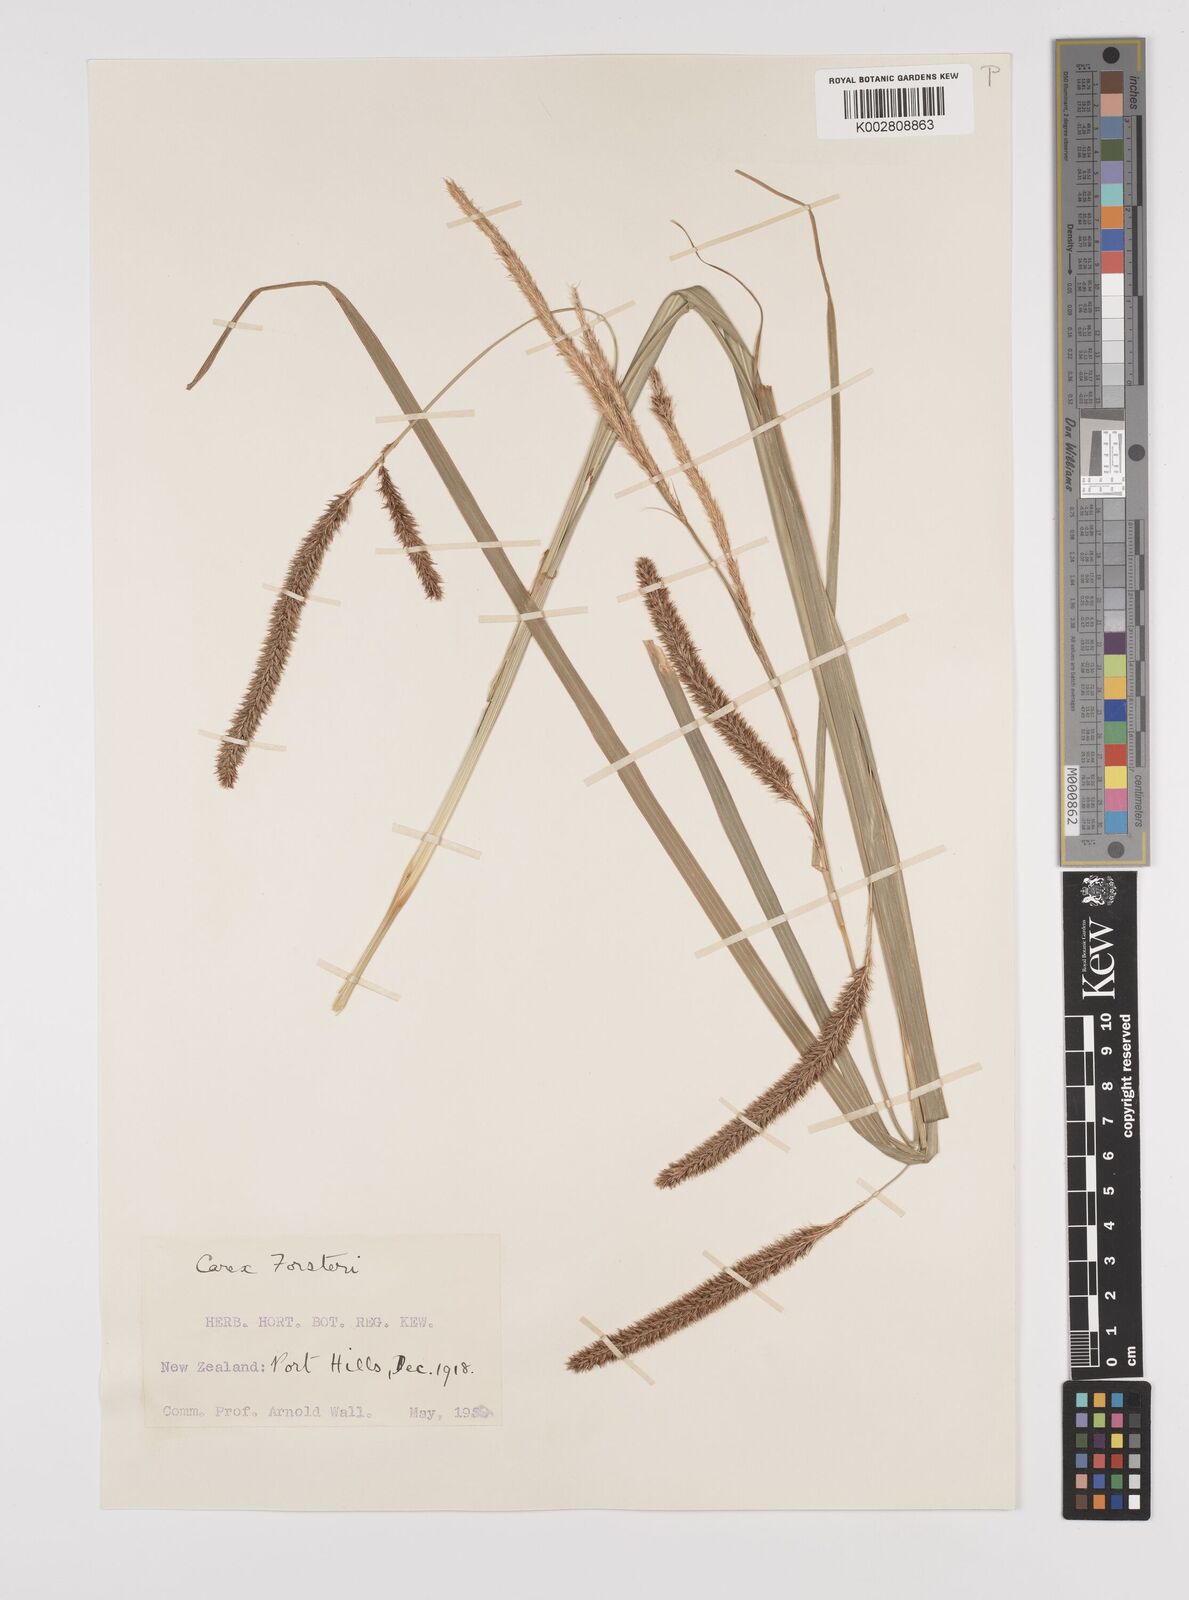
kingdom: Plantae
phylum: Tracheophyta
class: Liliopsida
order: Poales
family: Cyperaceae
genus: Carex
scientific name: Carex forsteri
